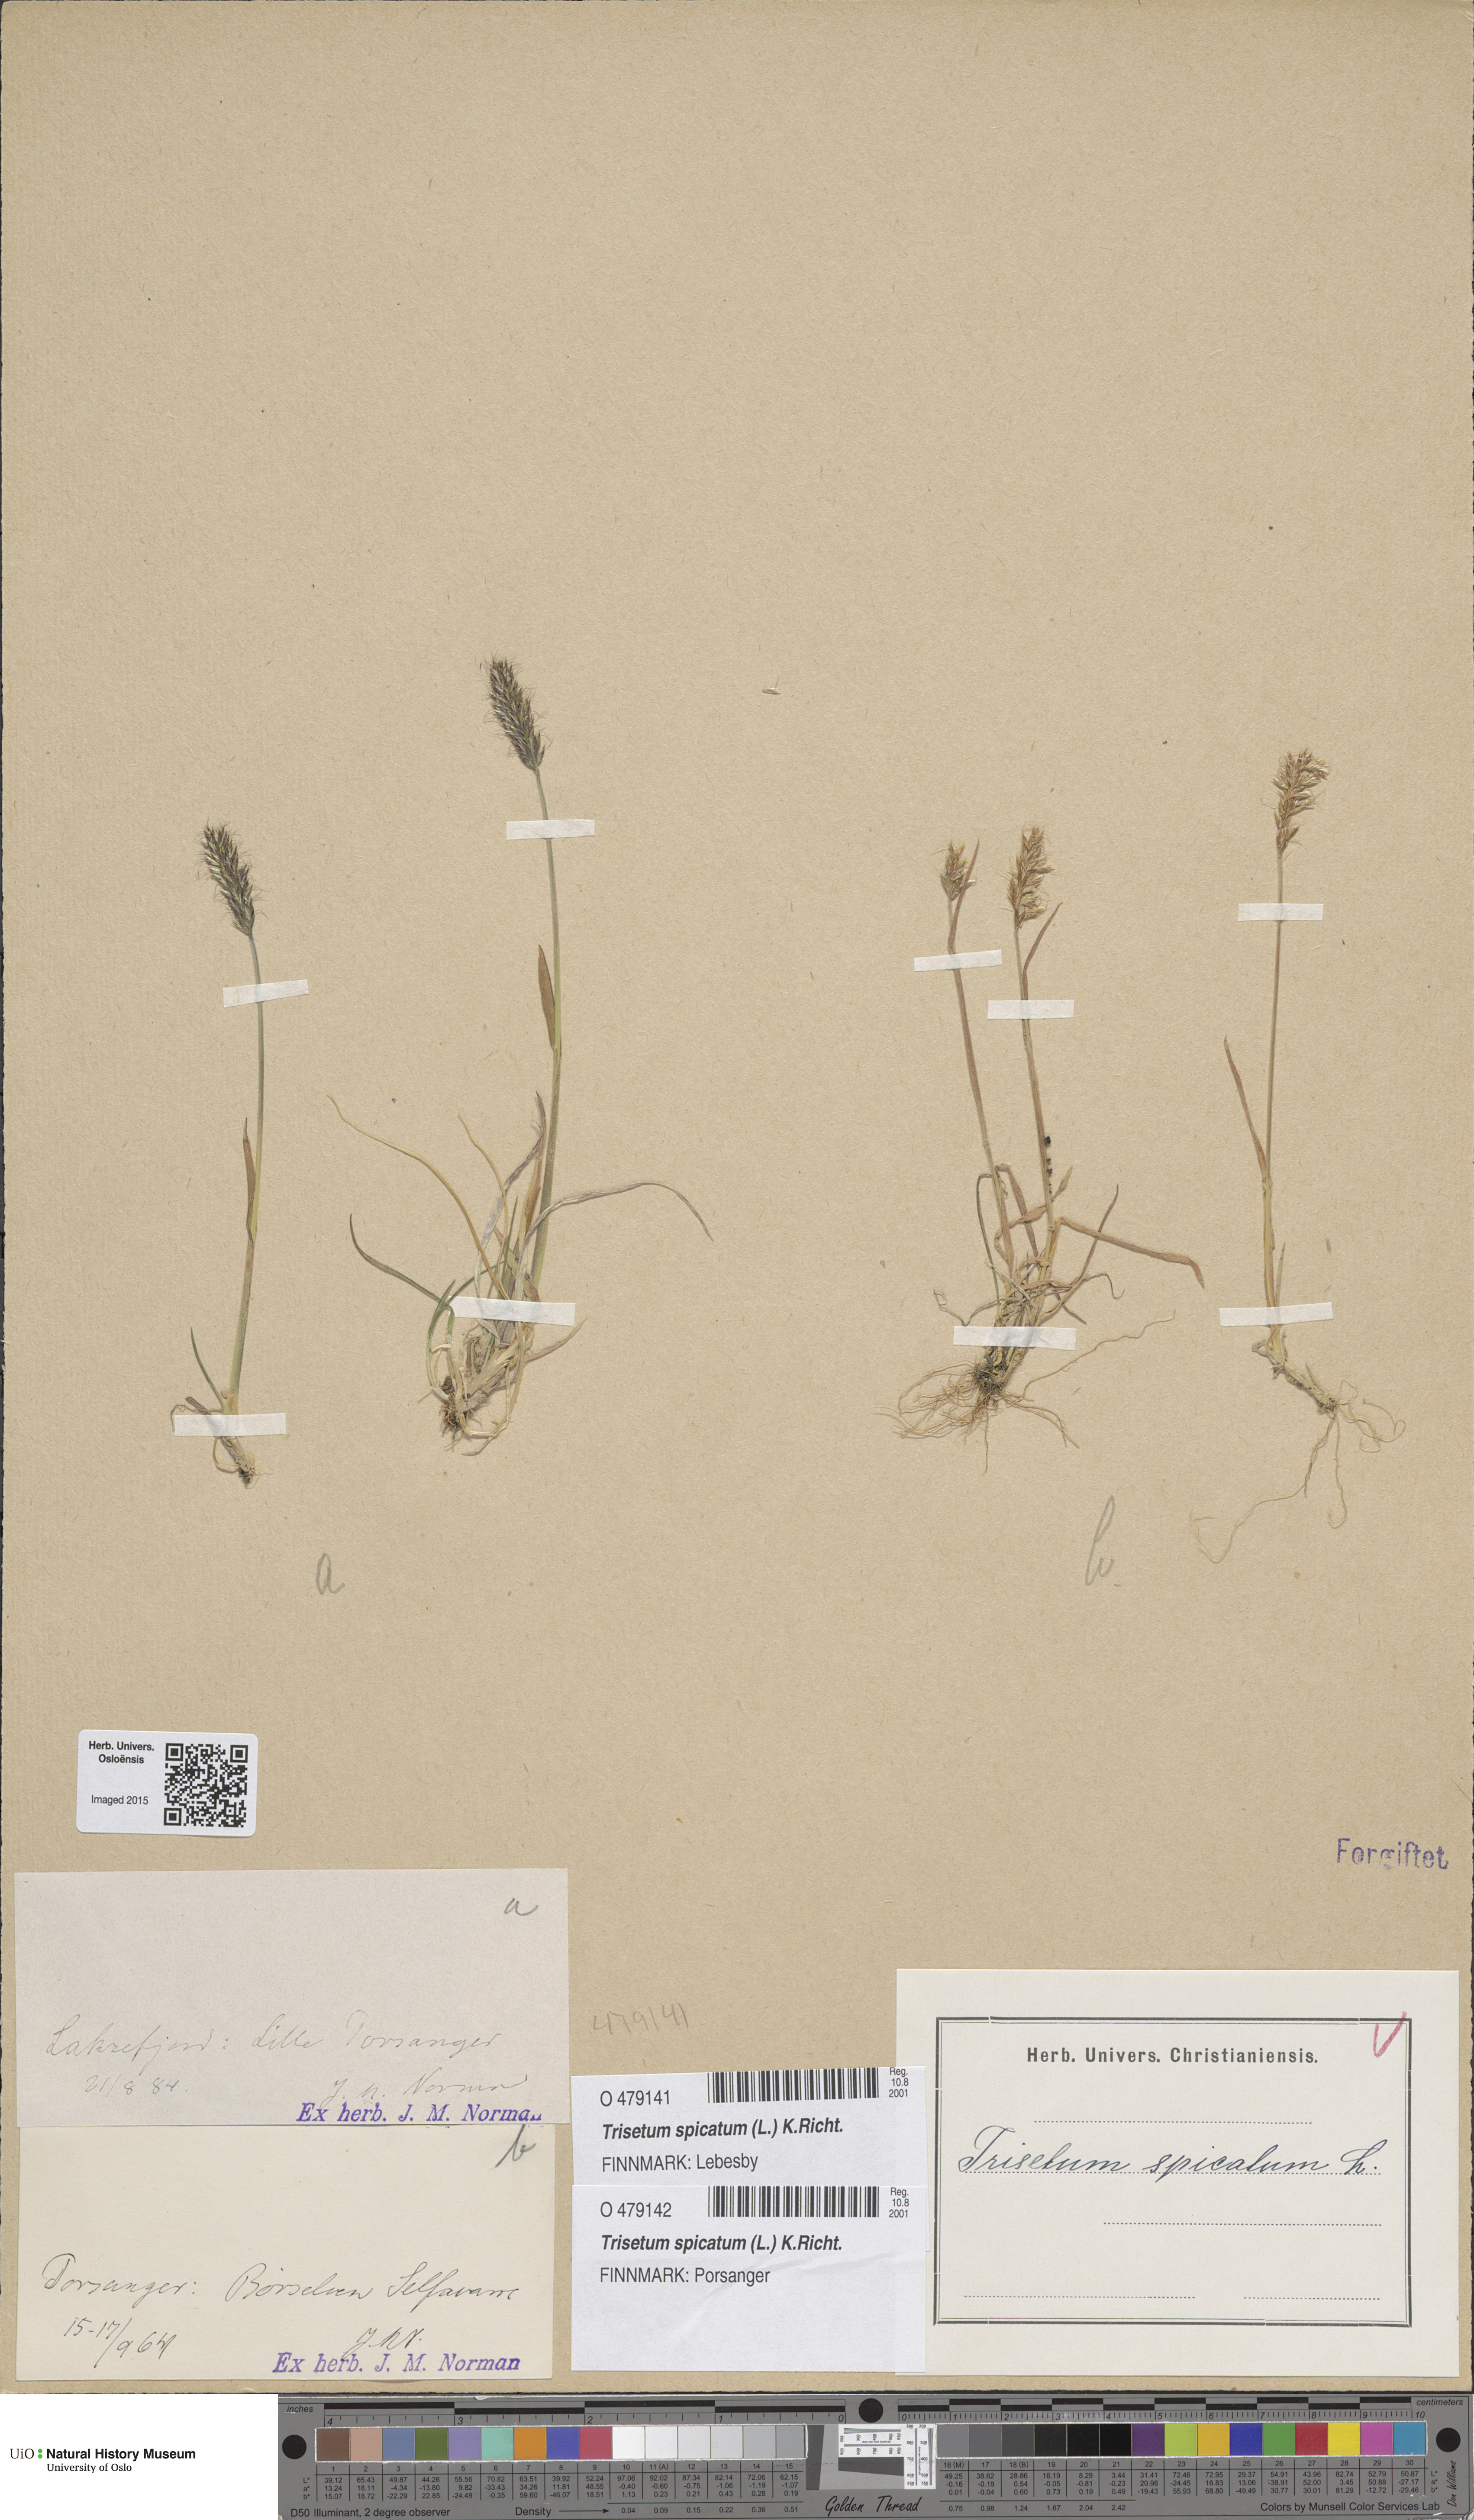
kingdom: Plantae
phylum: Tracheophyta
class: Liliopsida
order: Poales
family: Poaceae
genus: Koeleria
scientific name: Koeleria spicata
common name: Mountain trisetum
